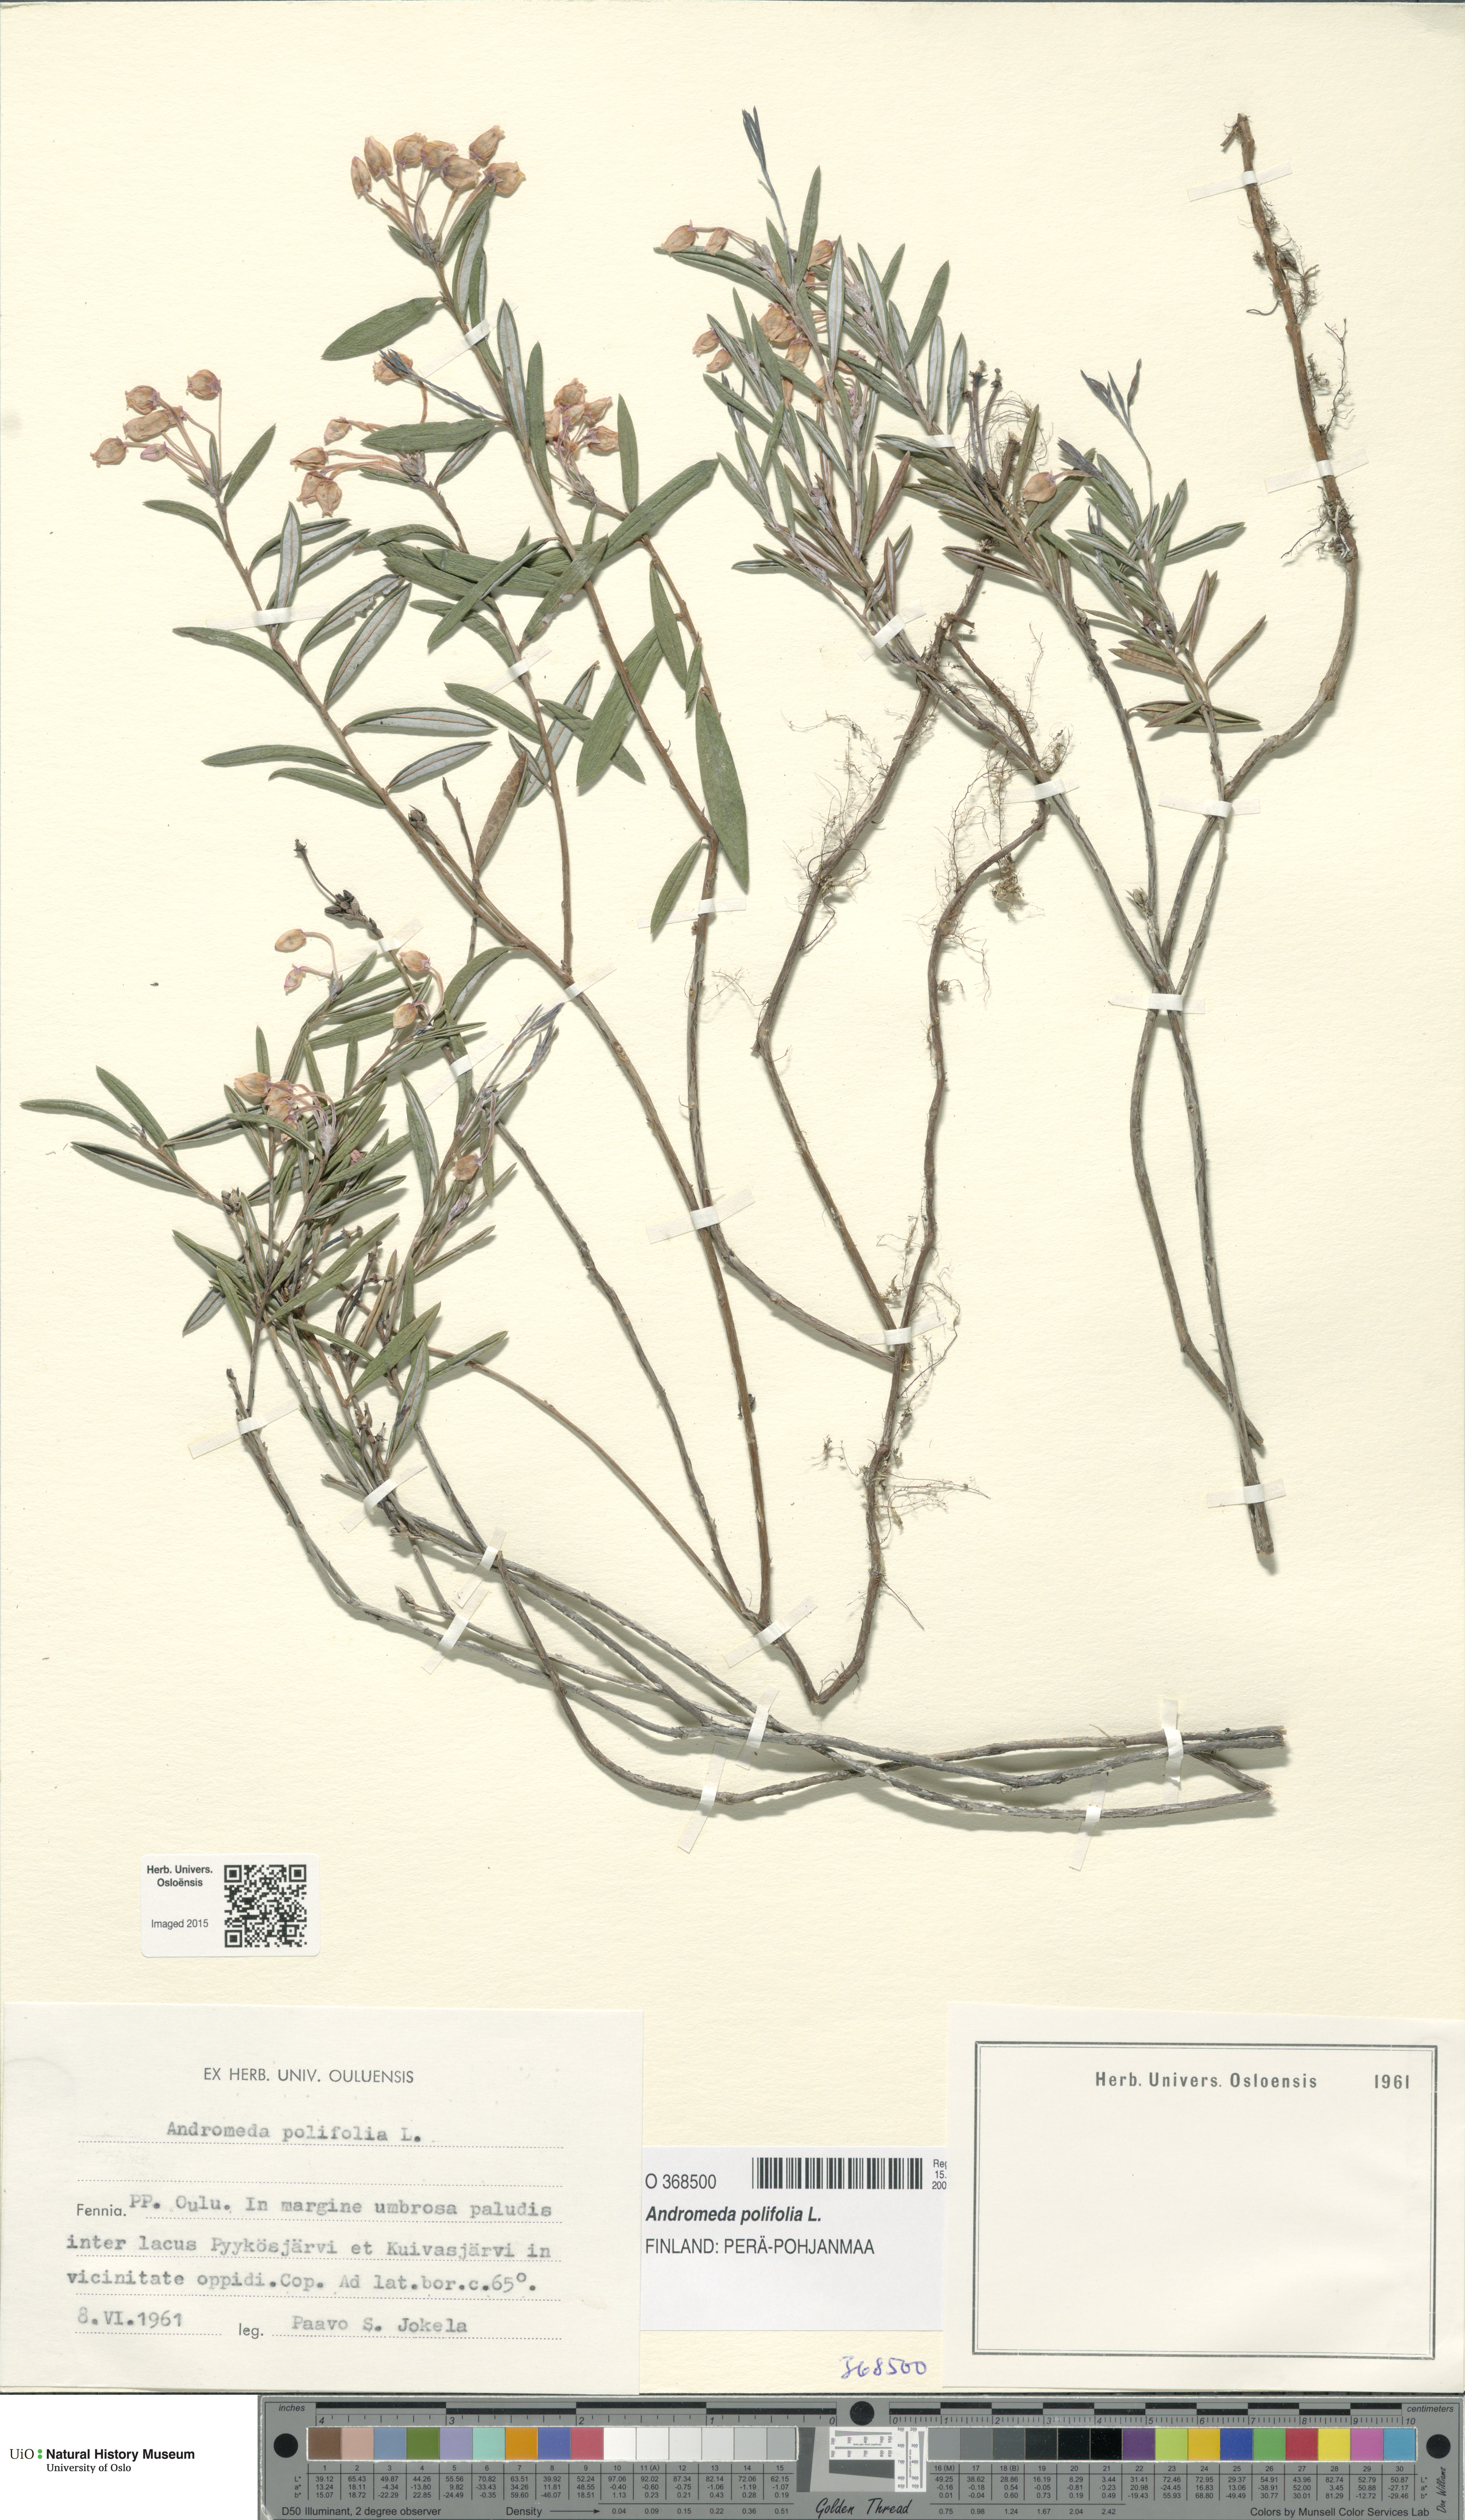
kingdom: Plantae
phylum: Tracheophyta
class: Magnoliopsida
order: Ericales
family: Ericaceae
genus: Andromeda
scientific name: Andromeda polifolia
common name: Bog-rosemary
